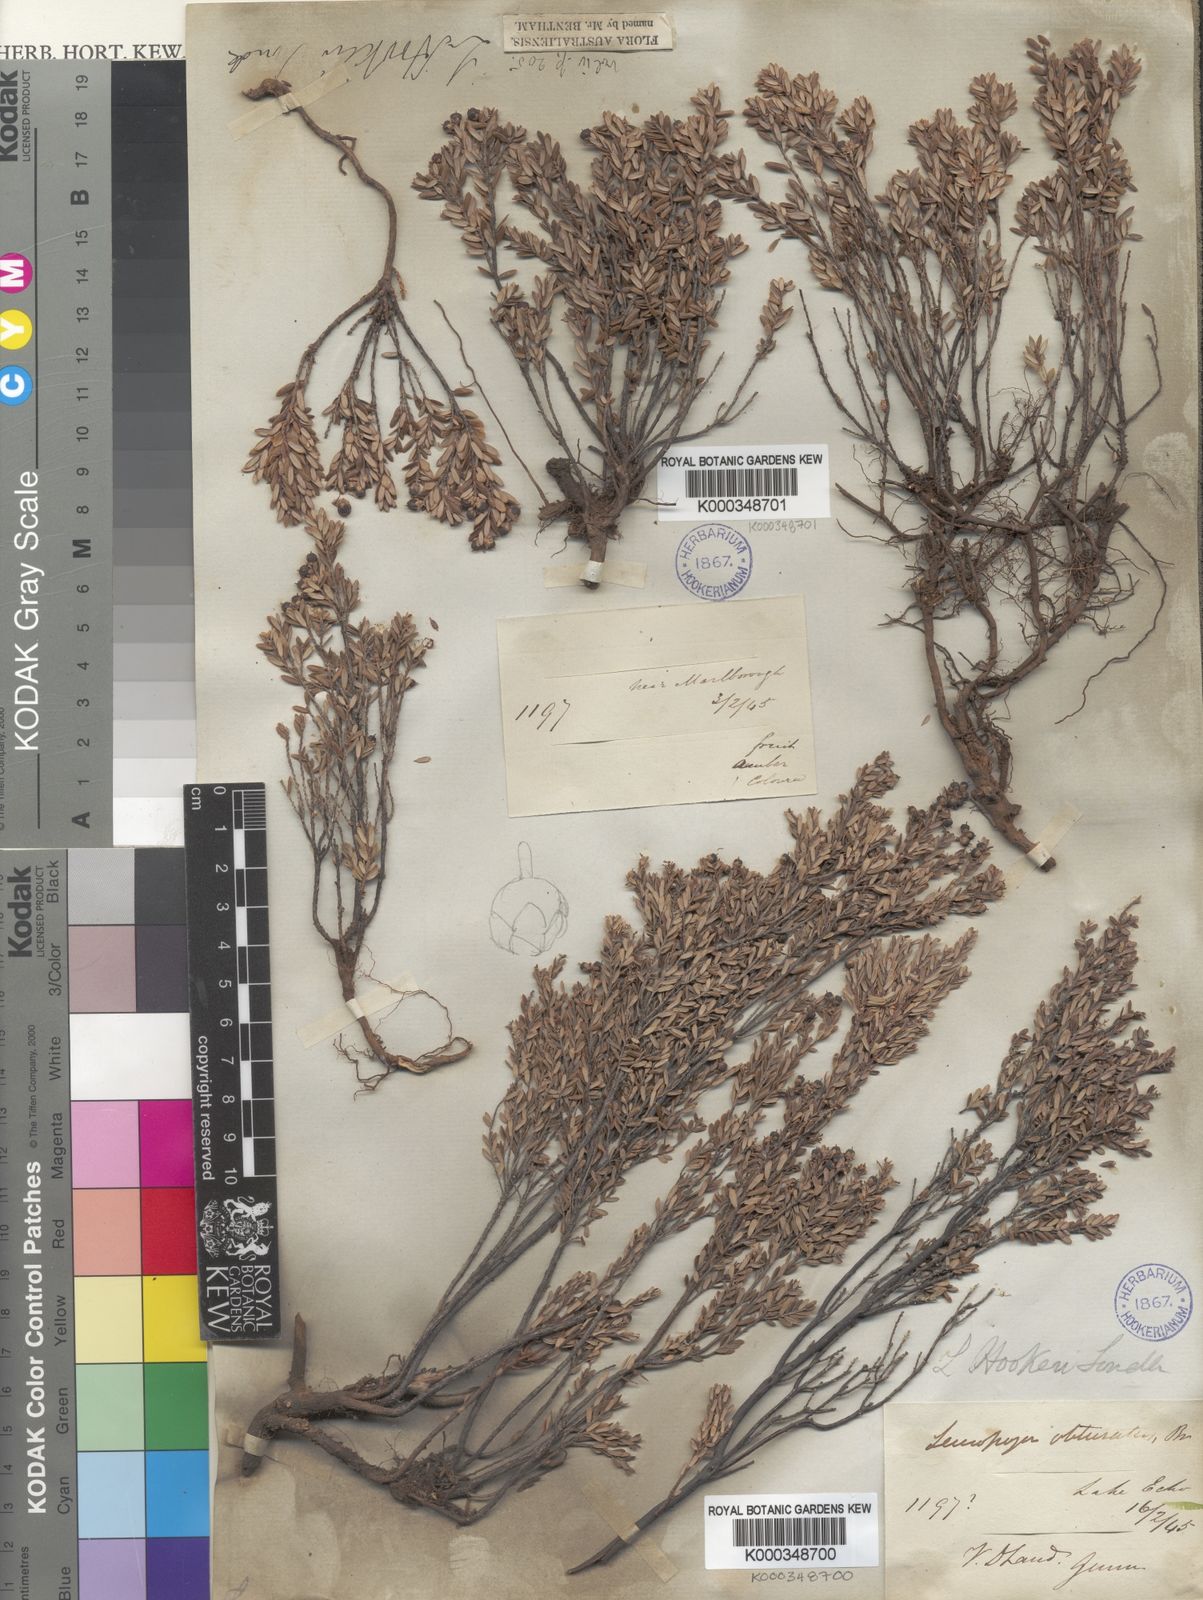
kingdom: Plantae
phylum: Tracheophyta
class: Magnoliopsida
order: Ericales
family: Ericaceae
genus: Acrothamnus
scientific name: Acrothamnus hookeri
